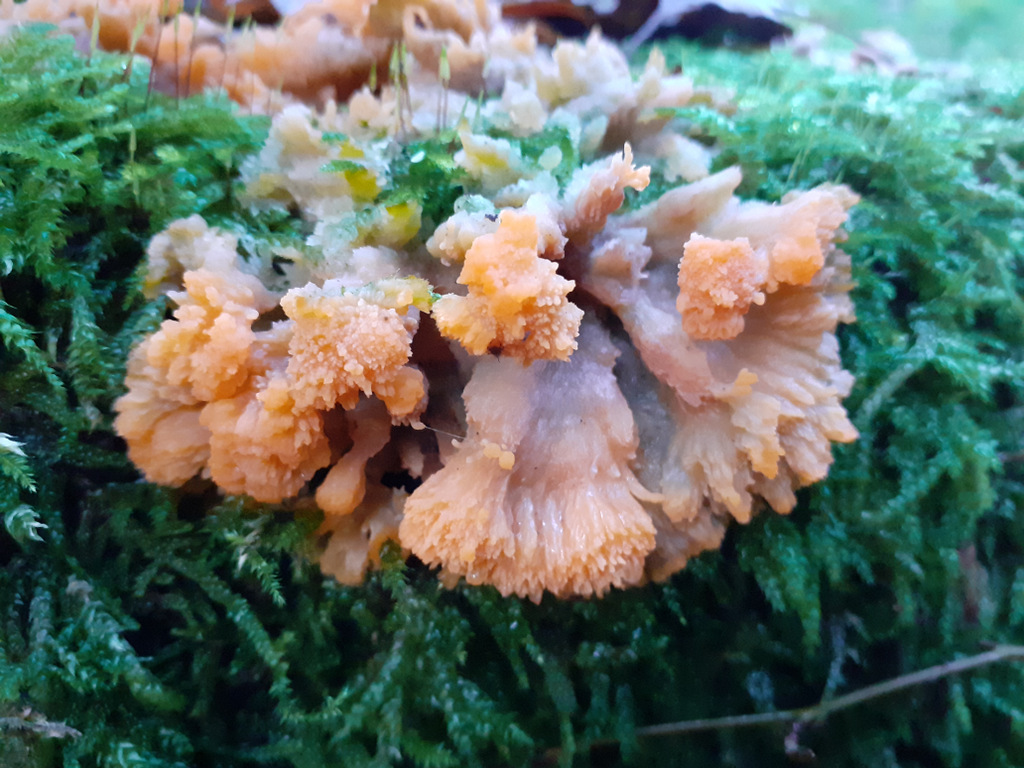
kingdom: Fungi
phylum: Basidiomycota
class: Agaricomycetes
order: Polyporales
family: Meruliaceae
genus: Phlebia
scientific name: Phlebia radiata
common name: stråle-åresvamp
